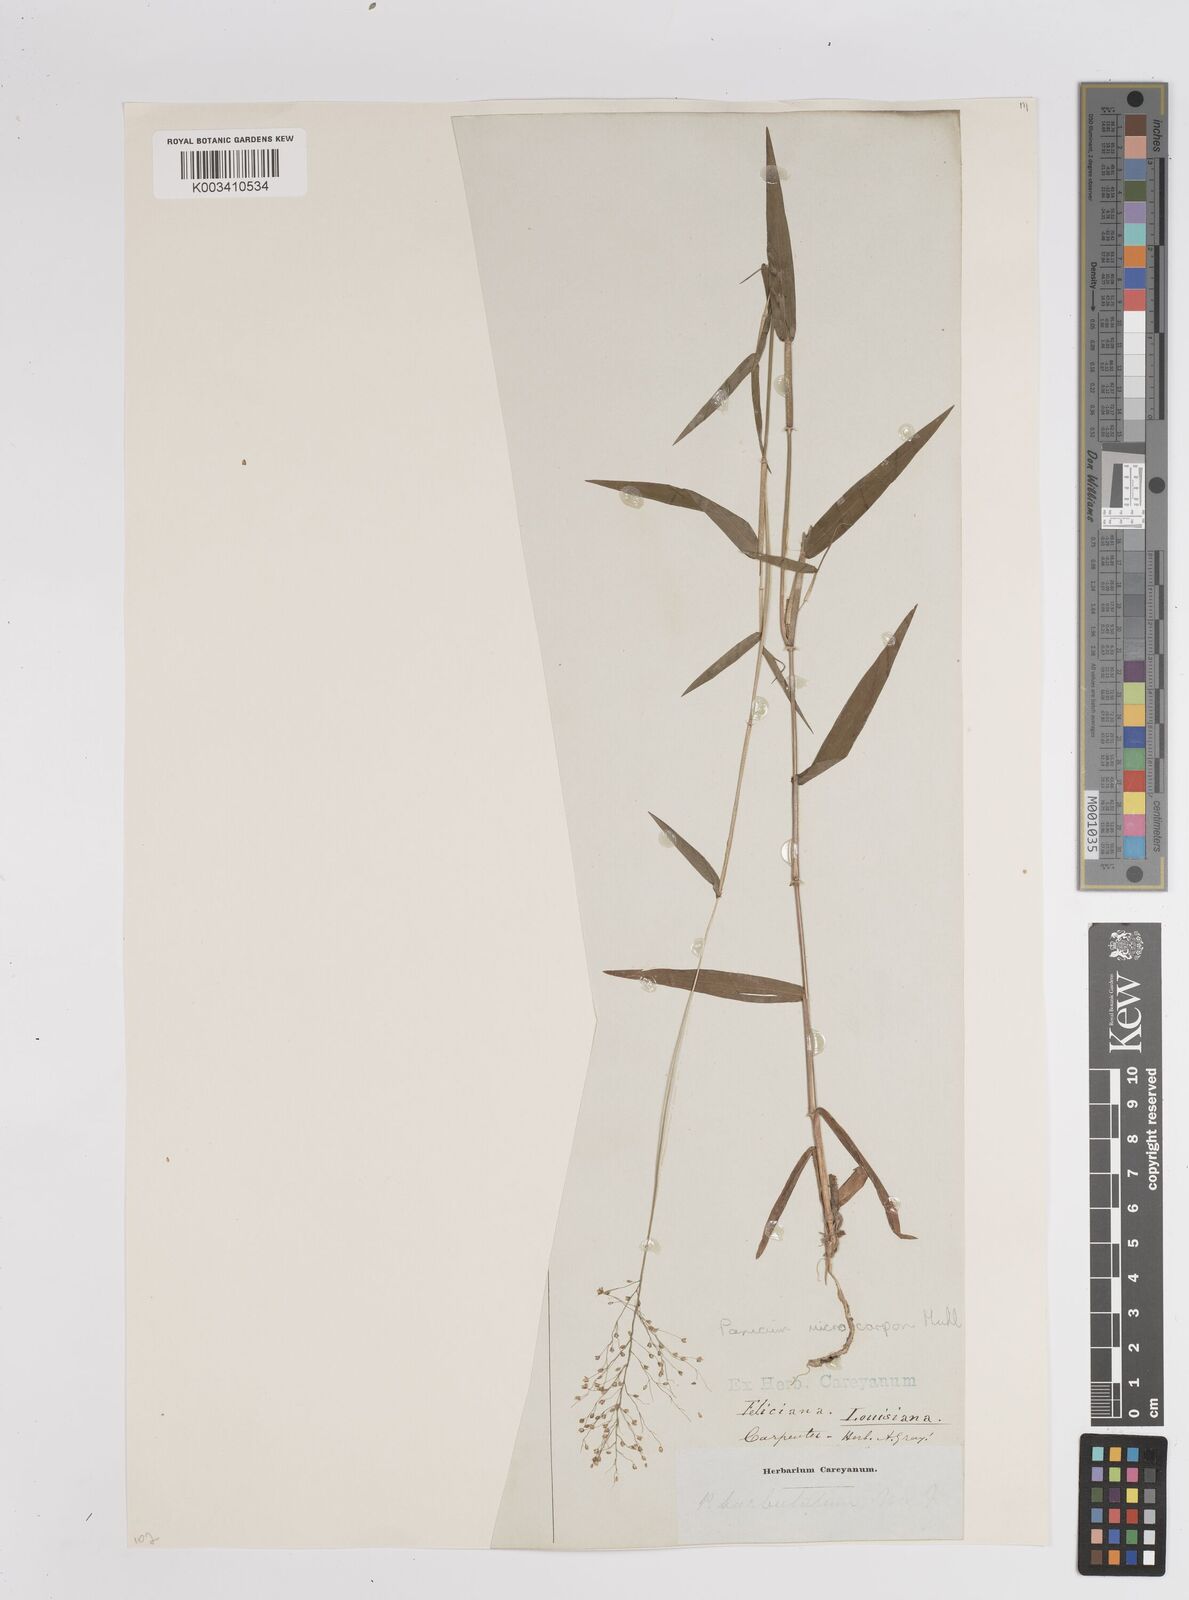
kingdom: Plantae
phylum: Tracheophyta
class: Liliopsida
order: Poales
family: Poaceae
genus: Dichanthelium
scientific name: Dichanthelium polyanthes
